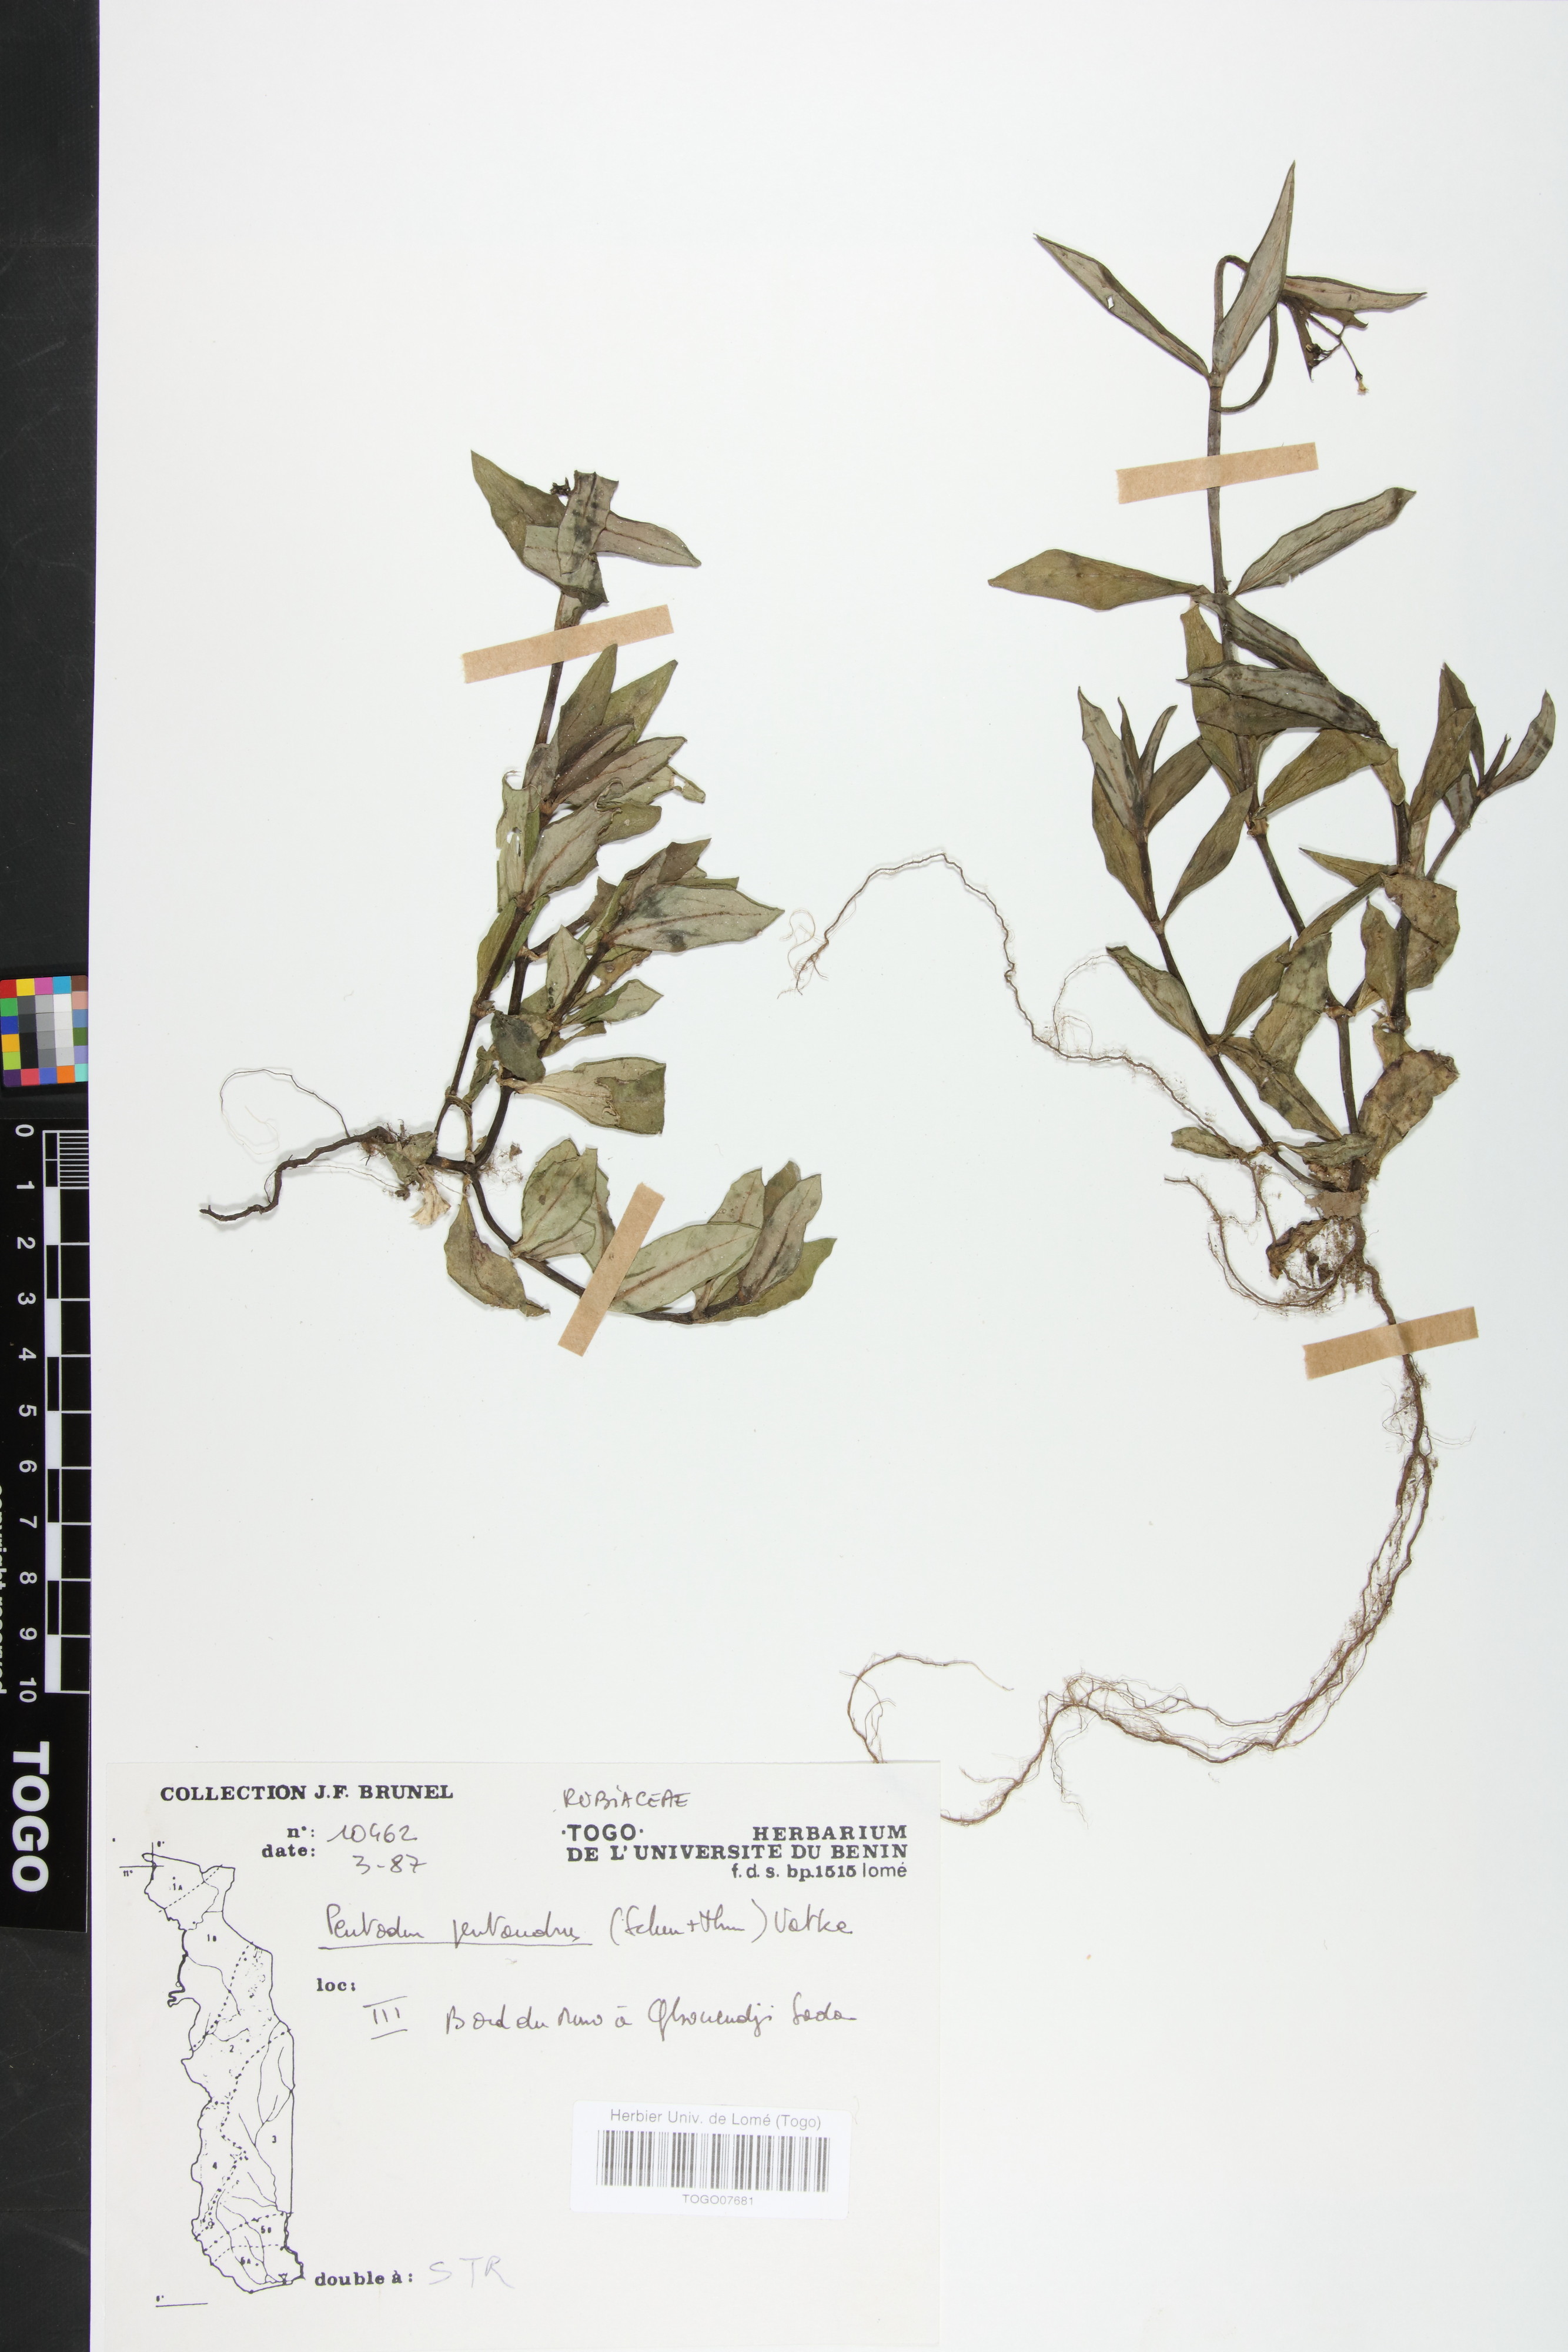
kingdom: Plantae
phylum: Tracheophyta
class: Magnoliopsida
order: Gentianales
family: Rubiaceae
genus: Pentodon
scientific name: Pentodon pentandrus
